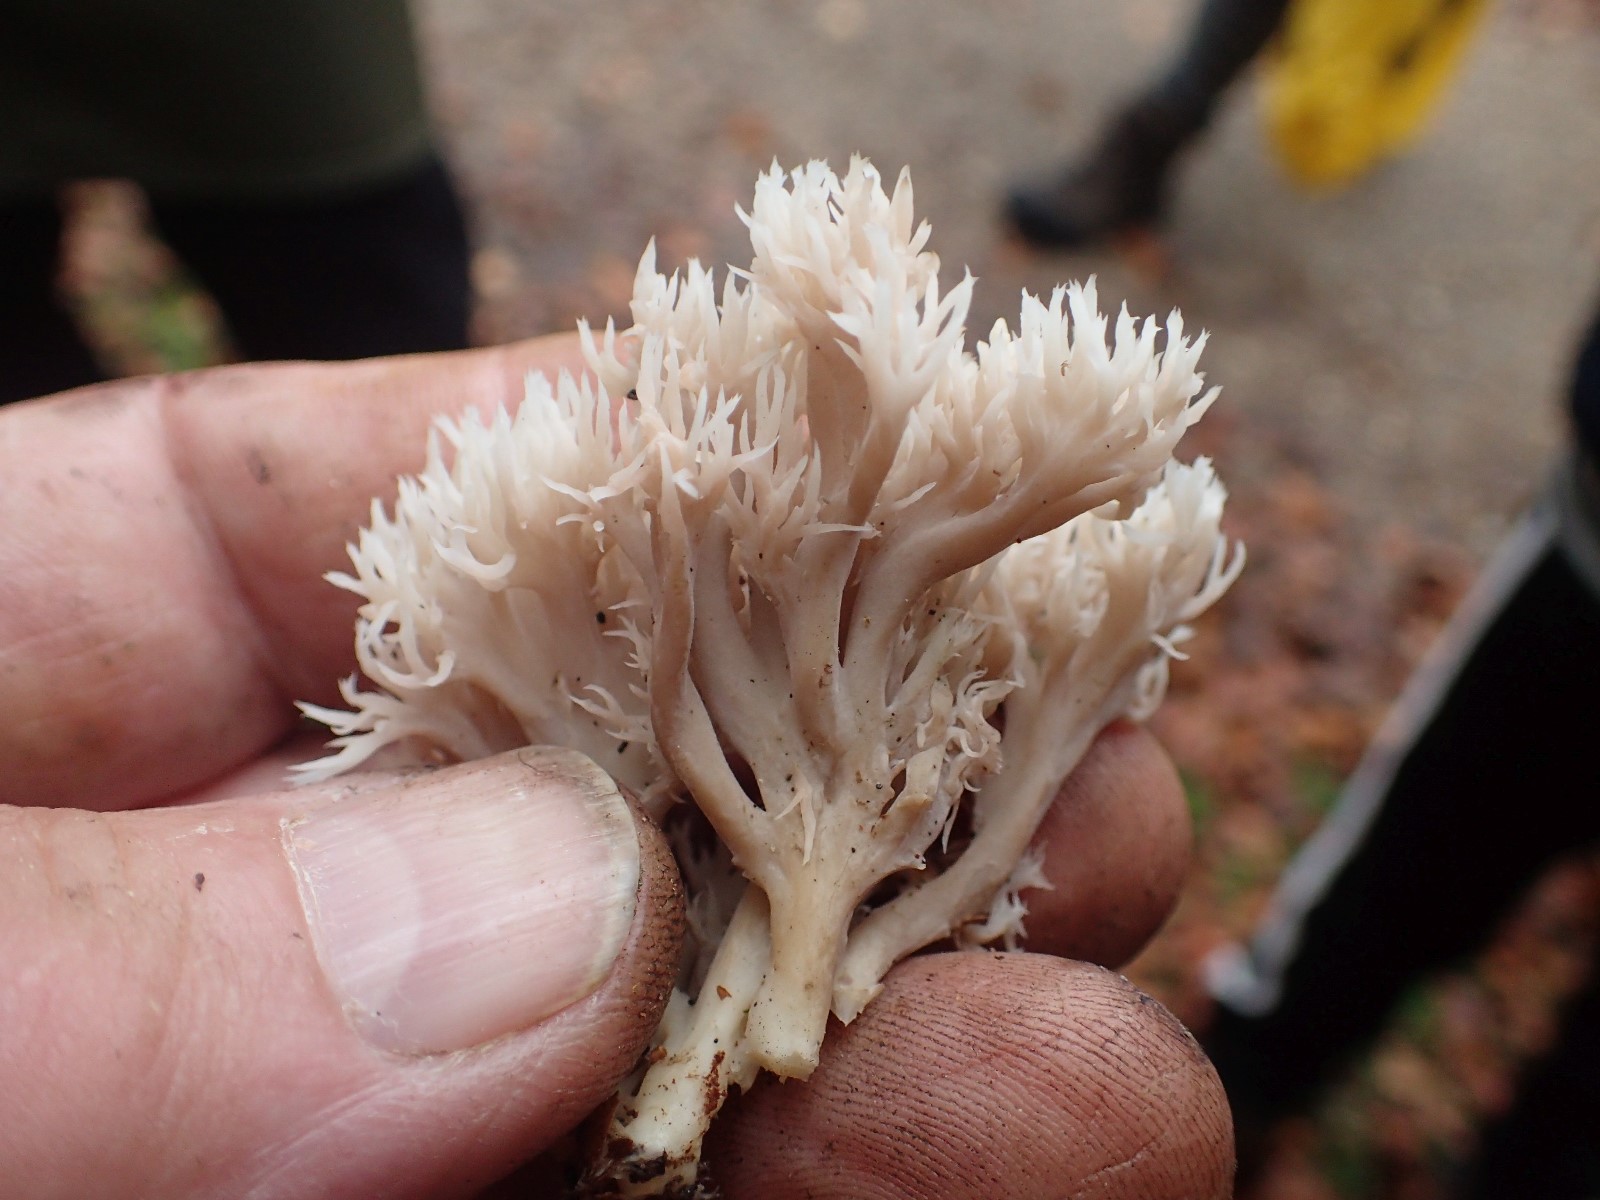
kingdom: Fungi
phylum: Basidiomycota
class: Agaricomycetes
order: Cantharellales
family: Hydnaceae
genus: Clavulina
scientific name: Clavulina
